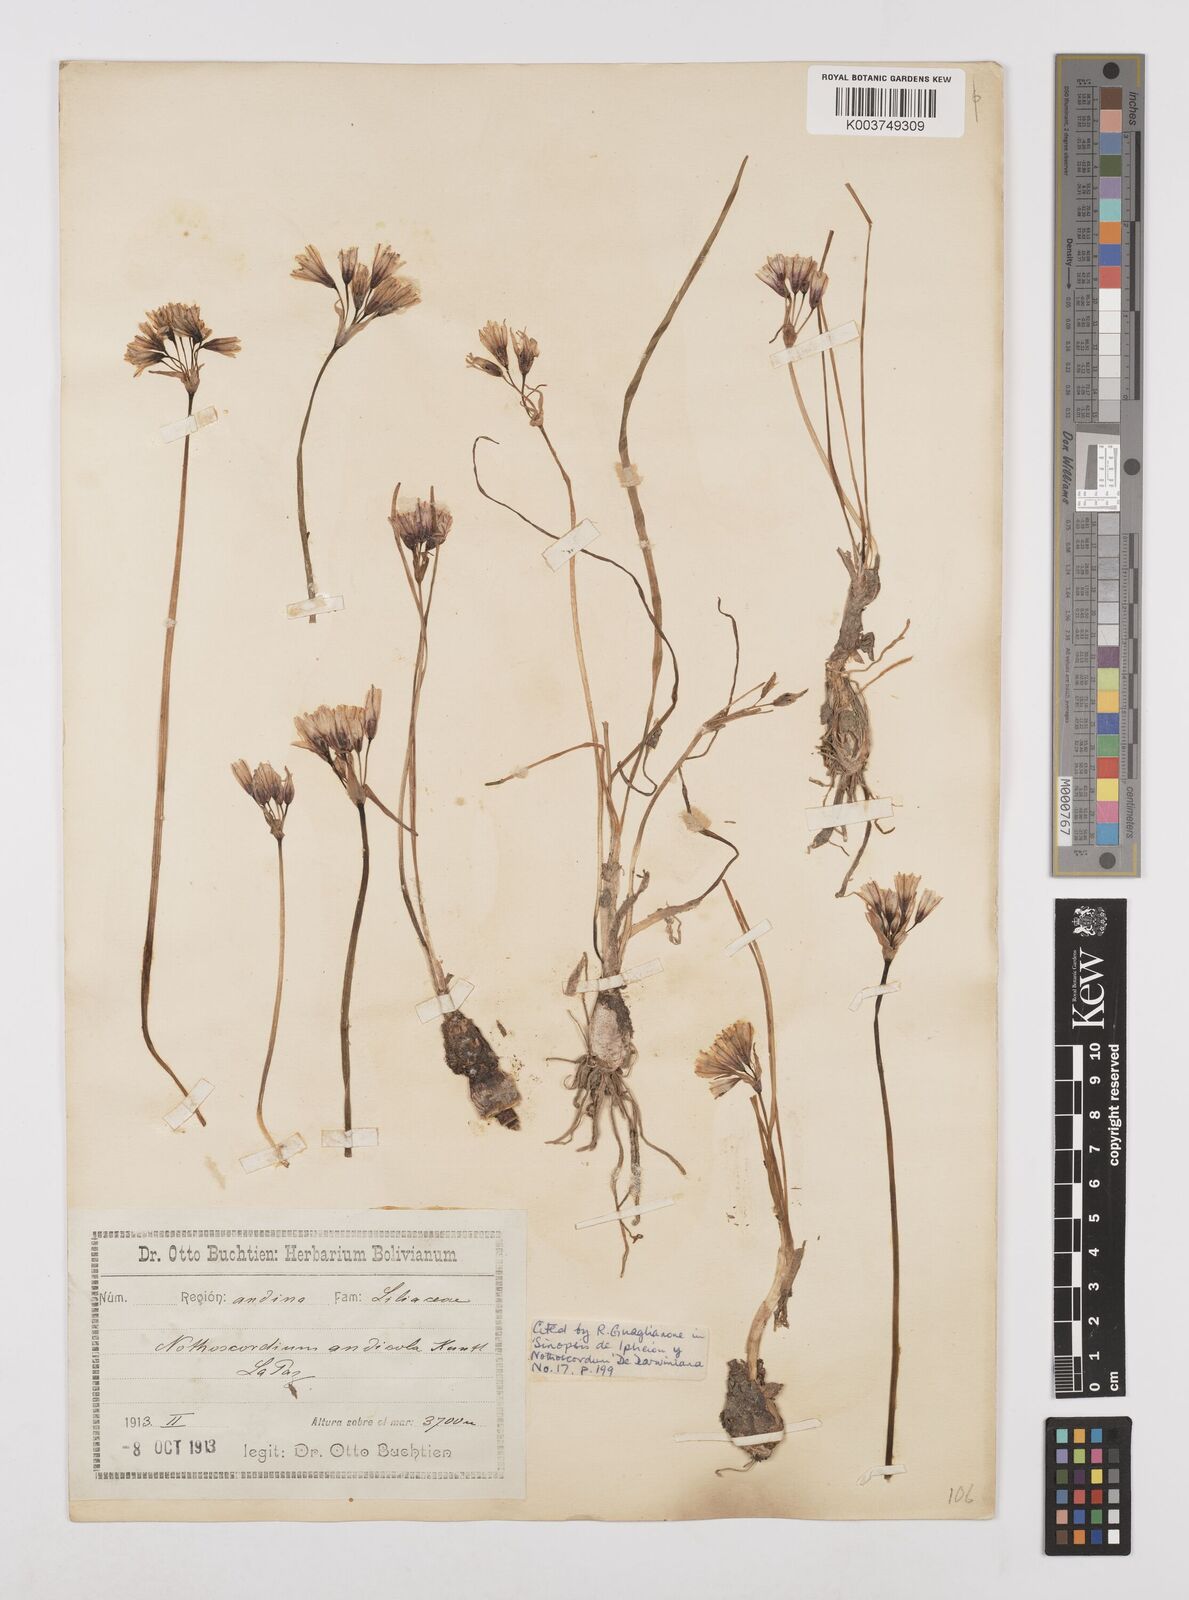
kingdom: Plantae
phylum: Tracheophyta
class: Liliopsida
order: Asparagales
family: Amaryllidaceae
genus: Nothoscordum
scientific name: Nothoscordum andicola
